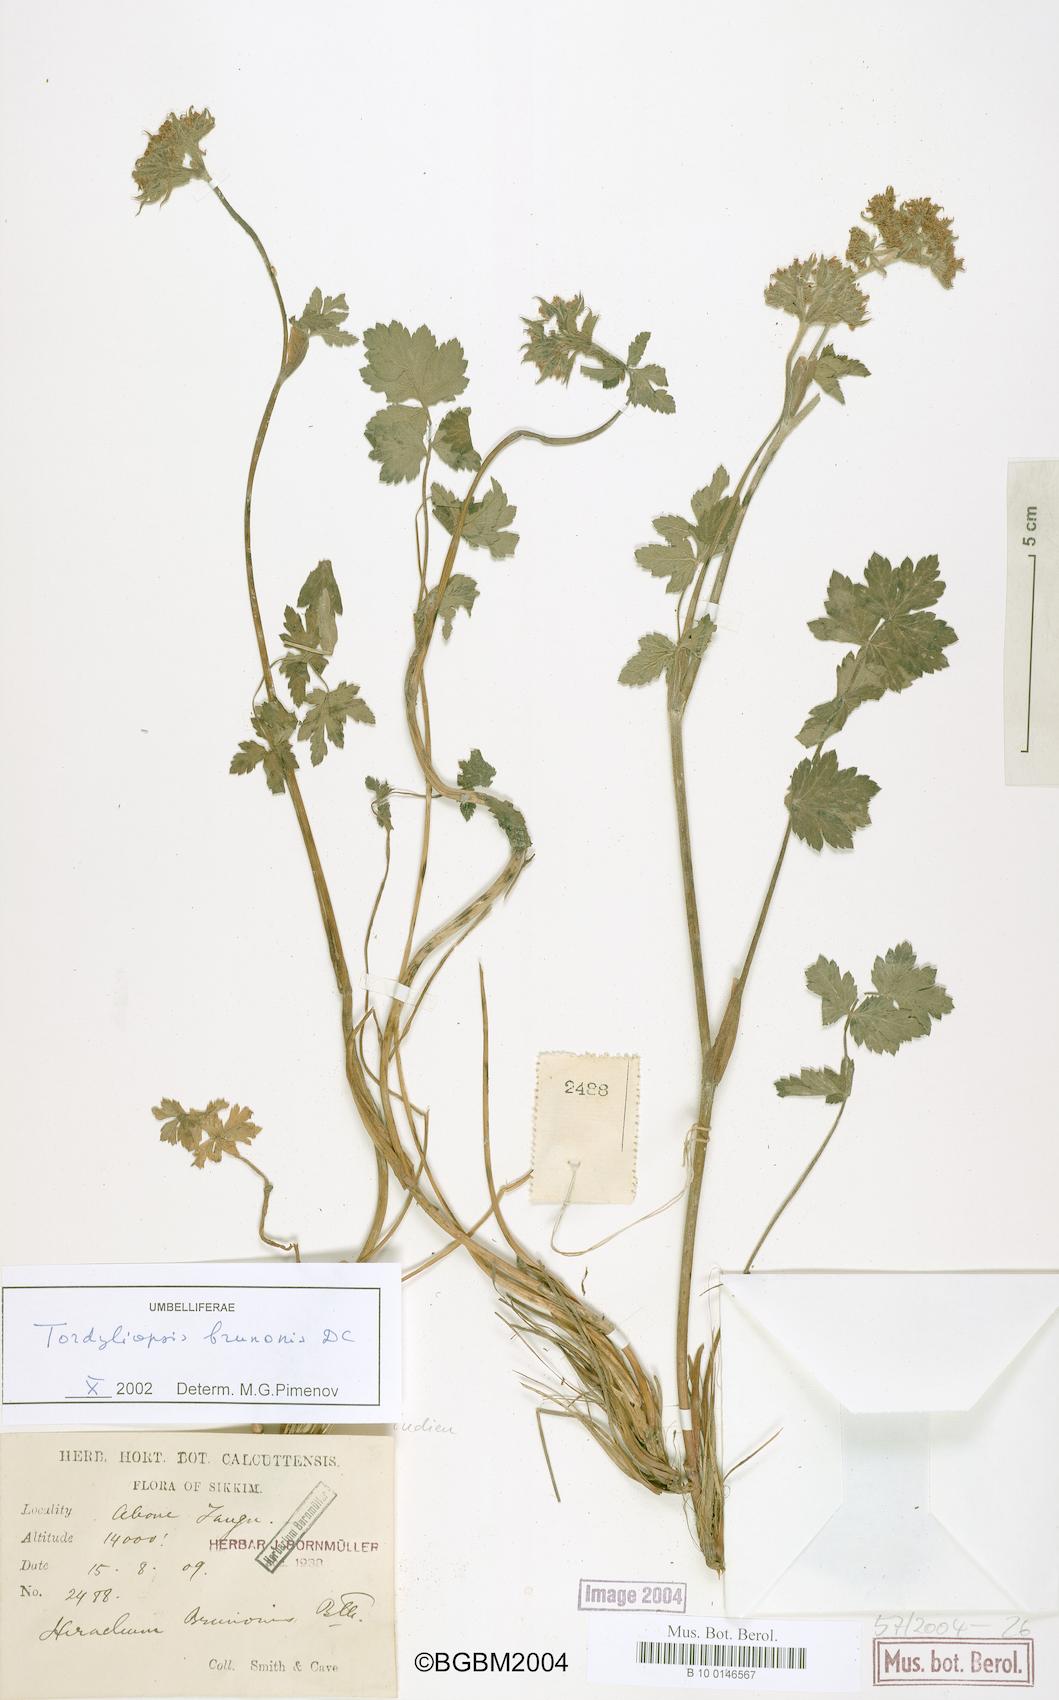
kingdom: Plantae
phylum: Tracheophyta
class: Magnoliopsida
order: Apiales
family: Apiaceae
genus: Tordyliopsis
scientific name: Tordyliopsis brunonis
